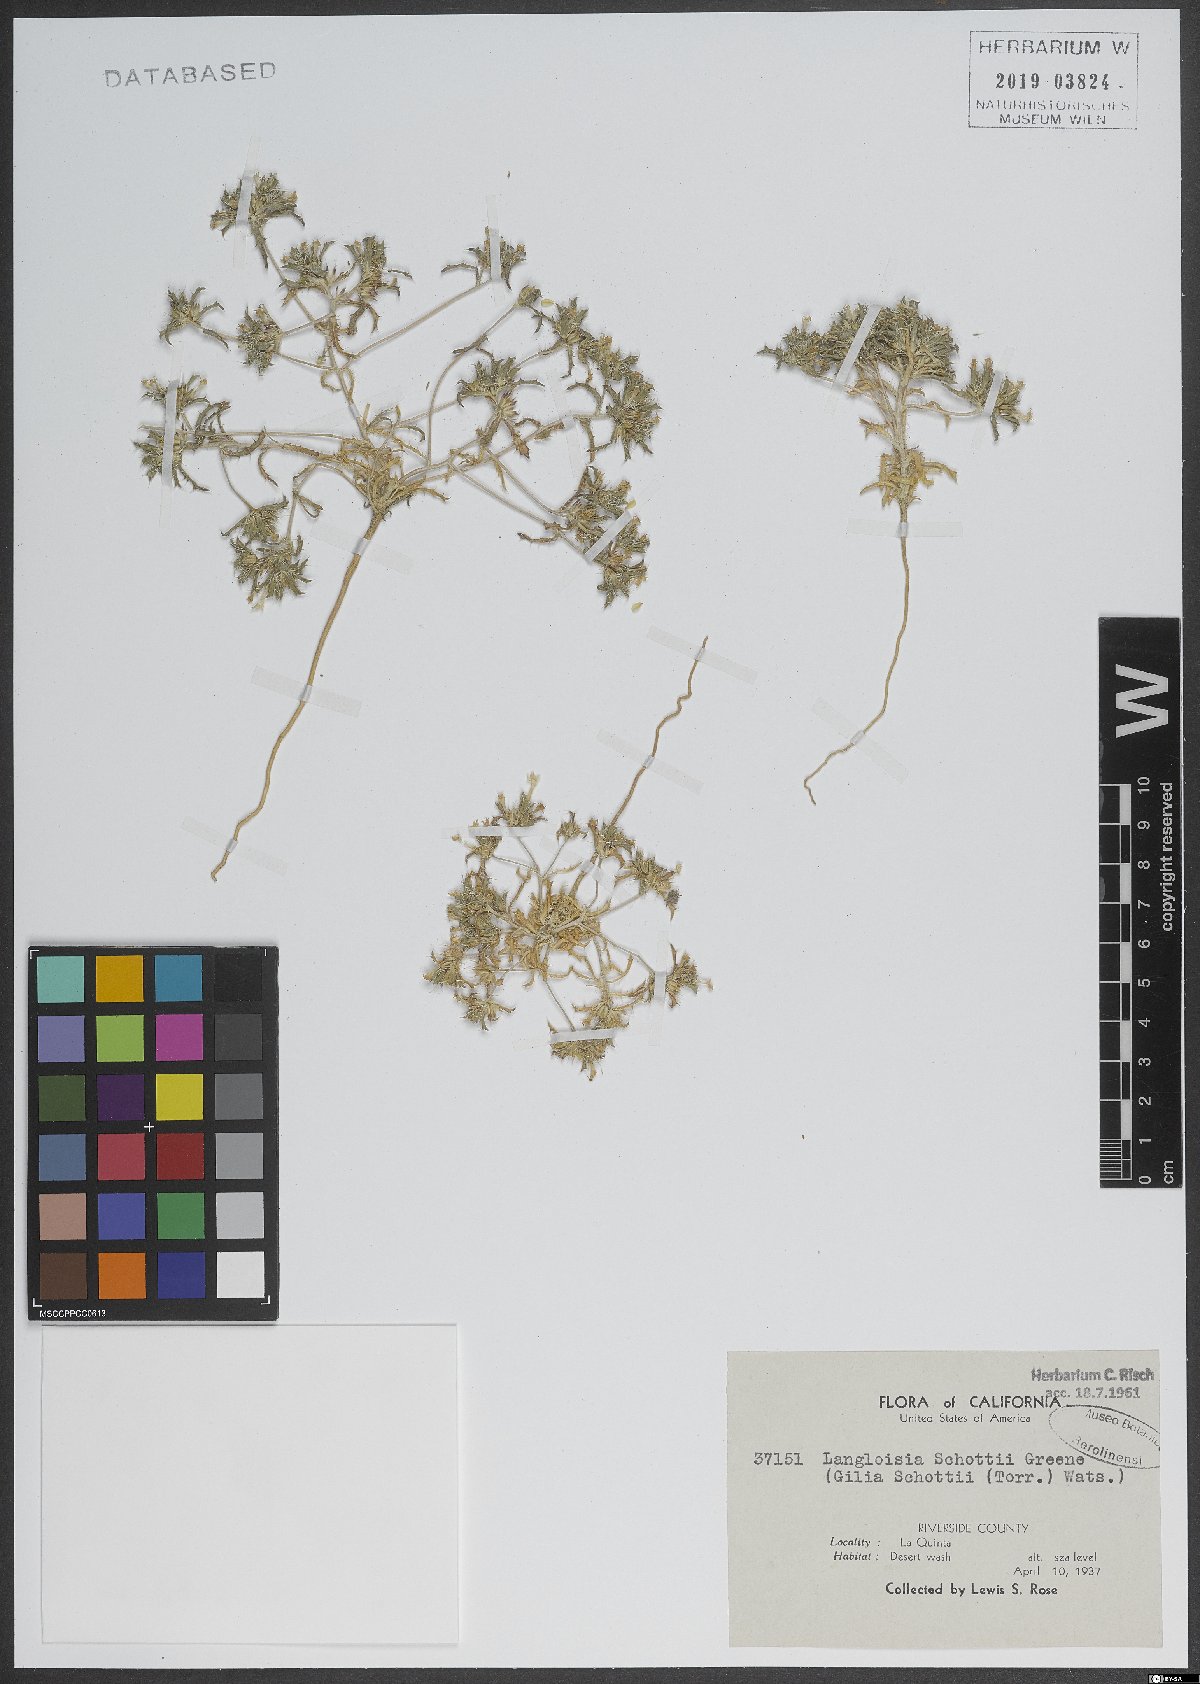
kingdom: Plantae
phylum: Tracheophyta
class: Magnoliopsida
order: Ericales
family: Polemoniaceae
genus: Loeseliastrum
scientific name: Loeseliastrum schottii
